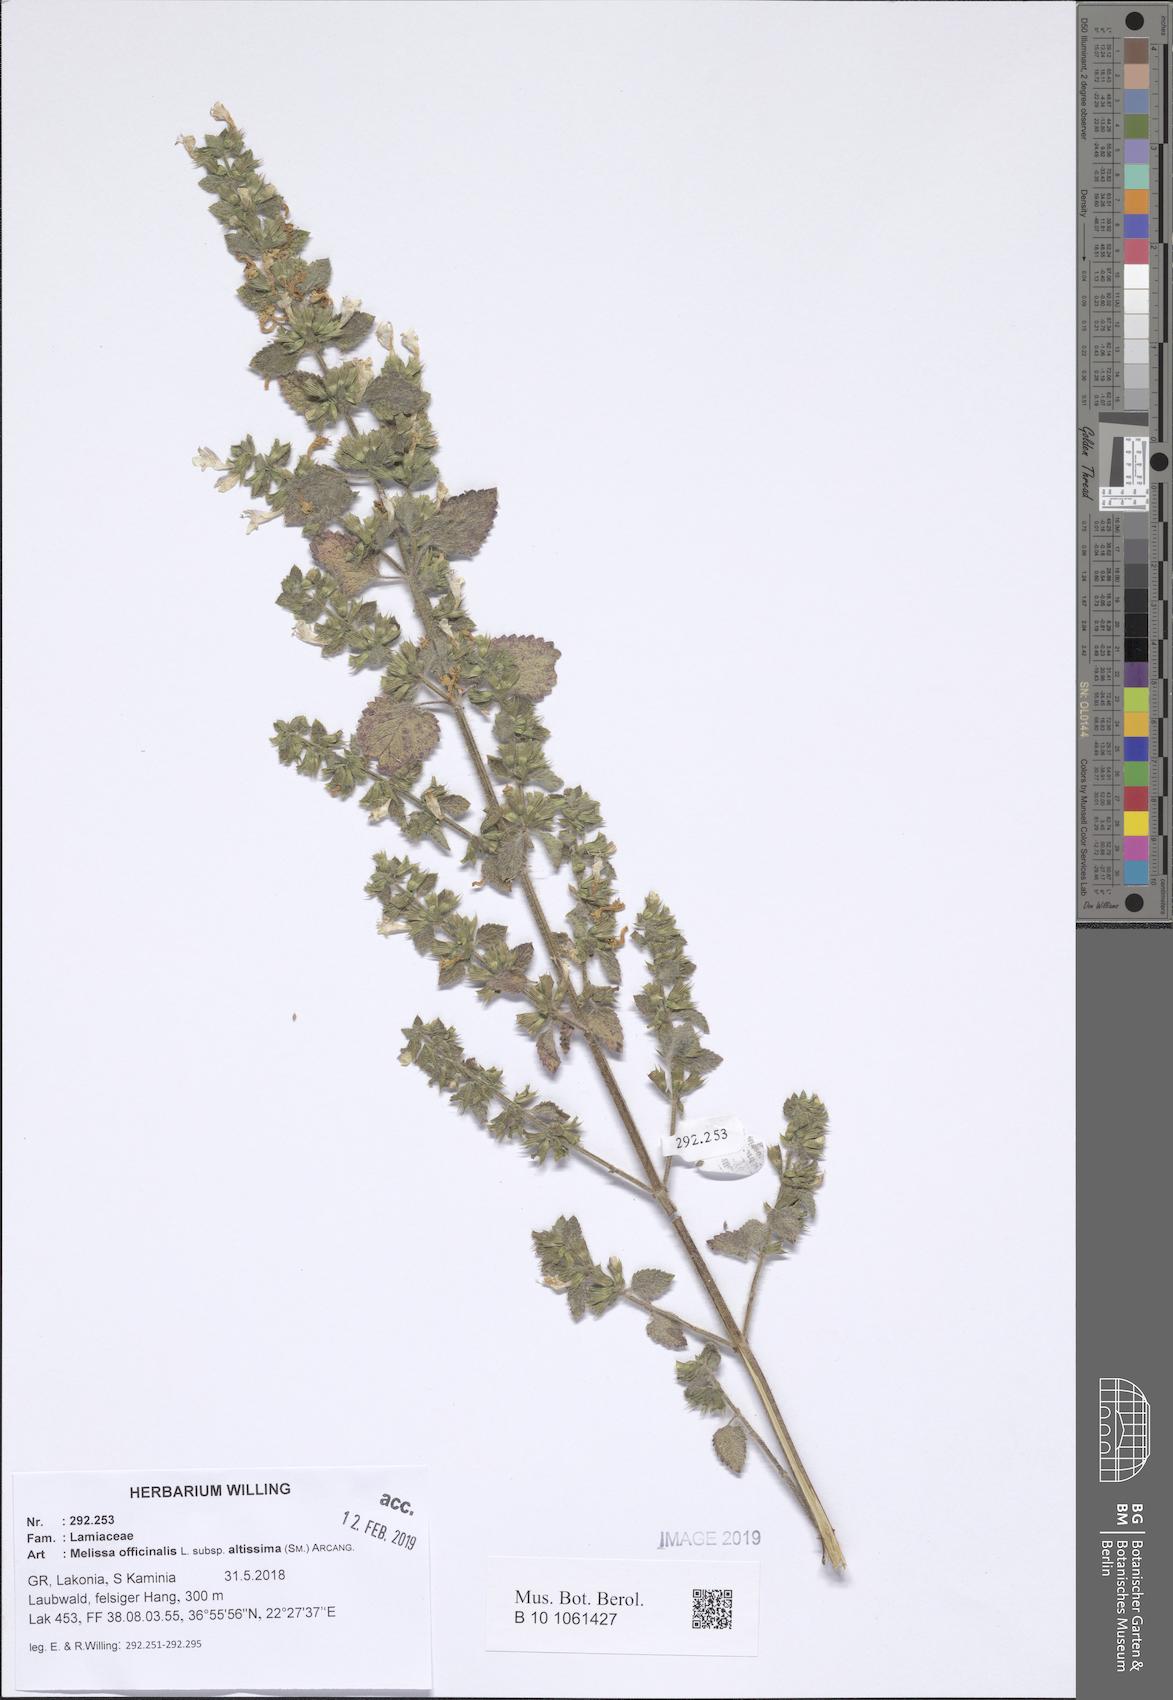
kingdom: Plantae
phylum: Tracheophyta
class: Magnoliopsida
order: Lamiales
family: Lamiaceae
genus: Melissa
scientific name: Melissa officinalis
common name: Balm
